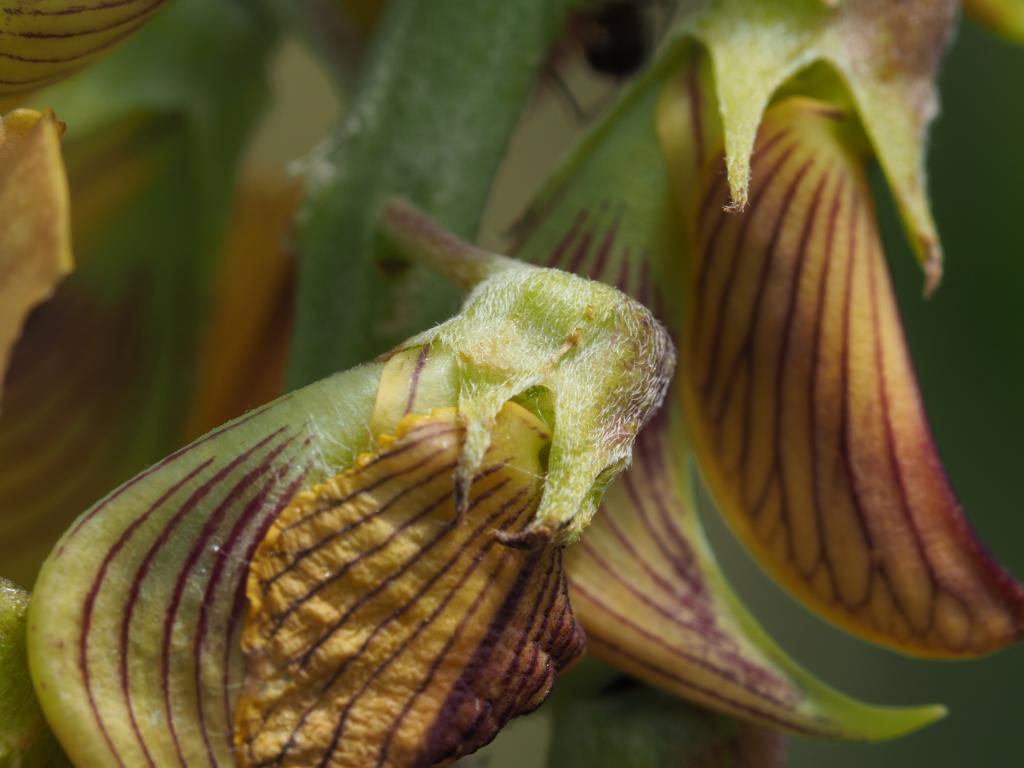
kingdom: Plantae
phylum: Tracheophyta
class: Magnoliopsida
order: Fabales
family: Fabaceae
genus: Crotalaria
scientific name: Crotalaria pallida
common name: Smooth rattlebox
